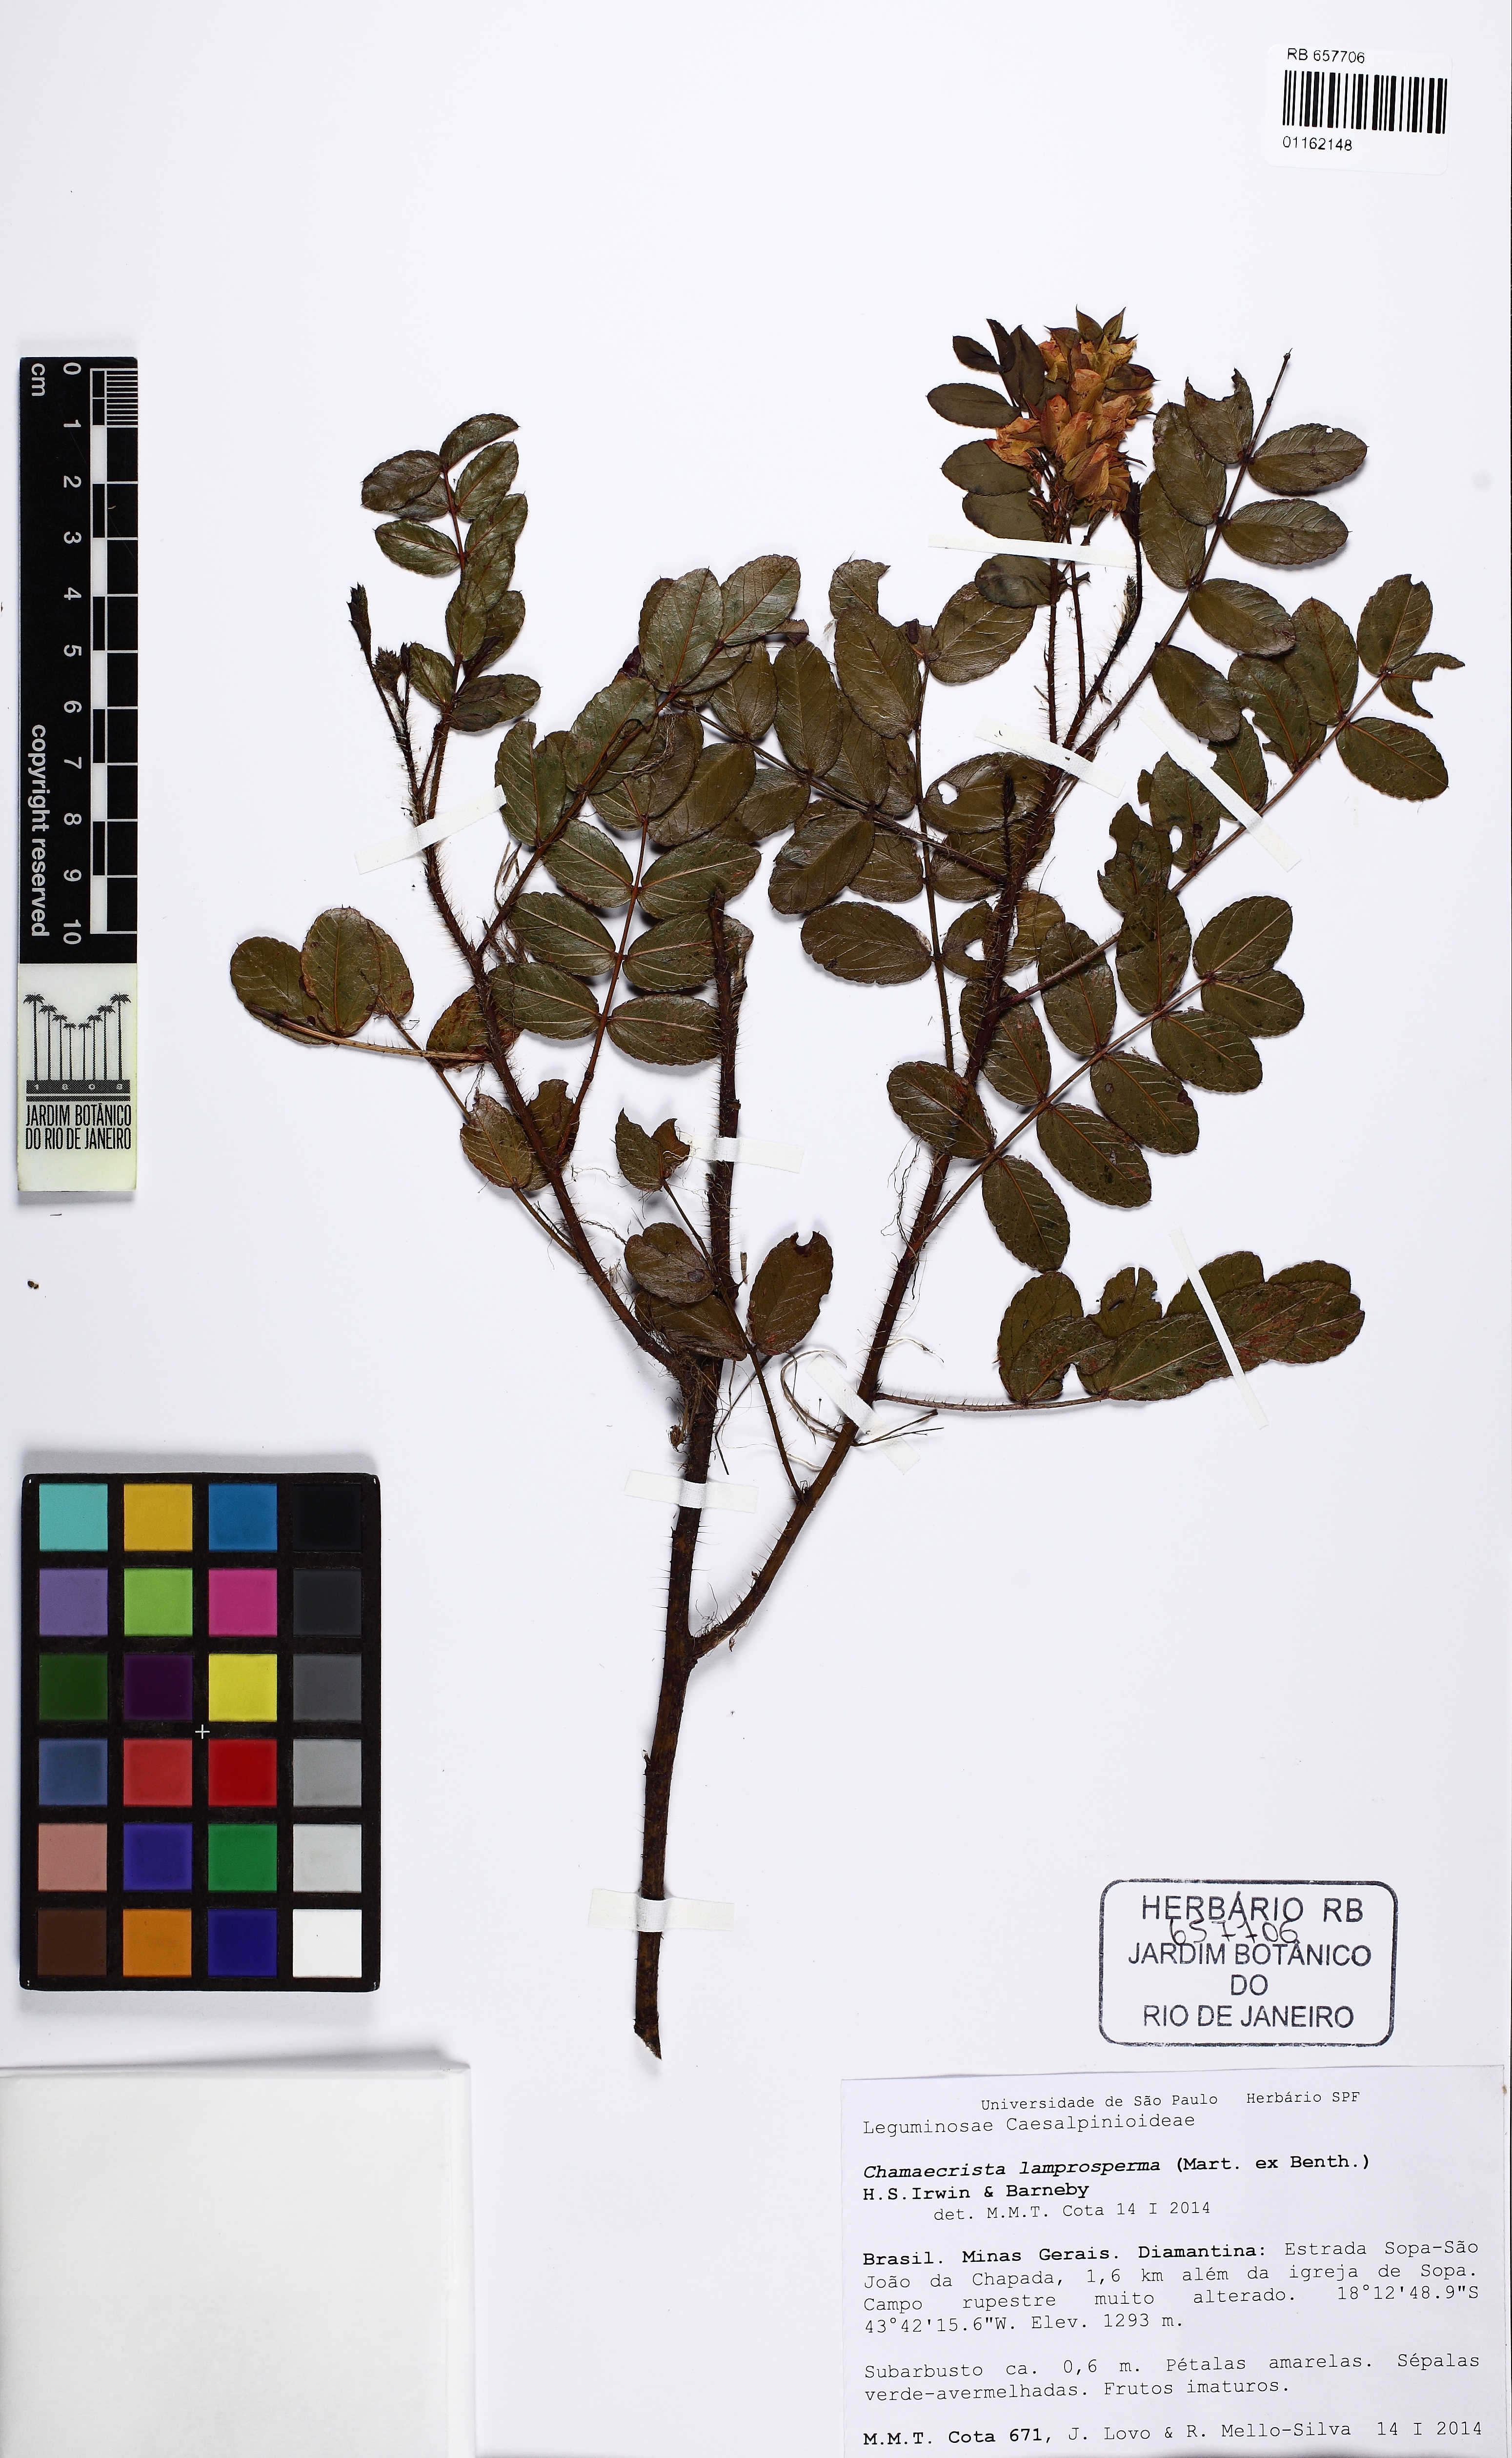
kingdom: Plantae
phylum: Tracheophyta
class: Magnoliopsida
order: Fabales
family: Fabaceae
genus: Chamaecrista
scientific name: Chamaecrista lamprosperma
